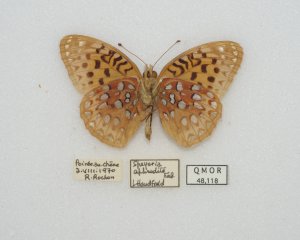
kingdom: Animalia
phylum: Arthropoda
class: Insecta
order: Lepidoptera
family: Nymphalidae
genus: Speyeria
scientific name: Speyeria aphrodite
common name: Aphrodite Fritillary
